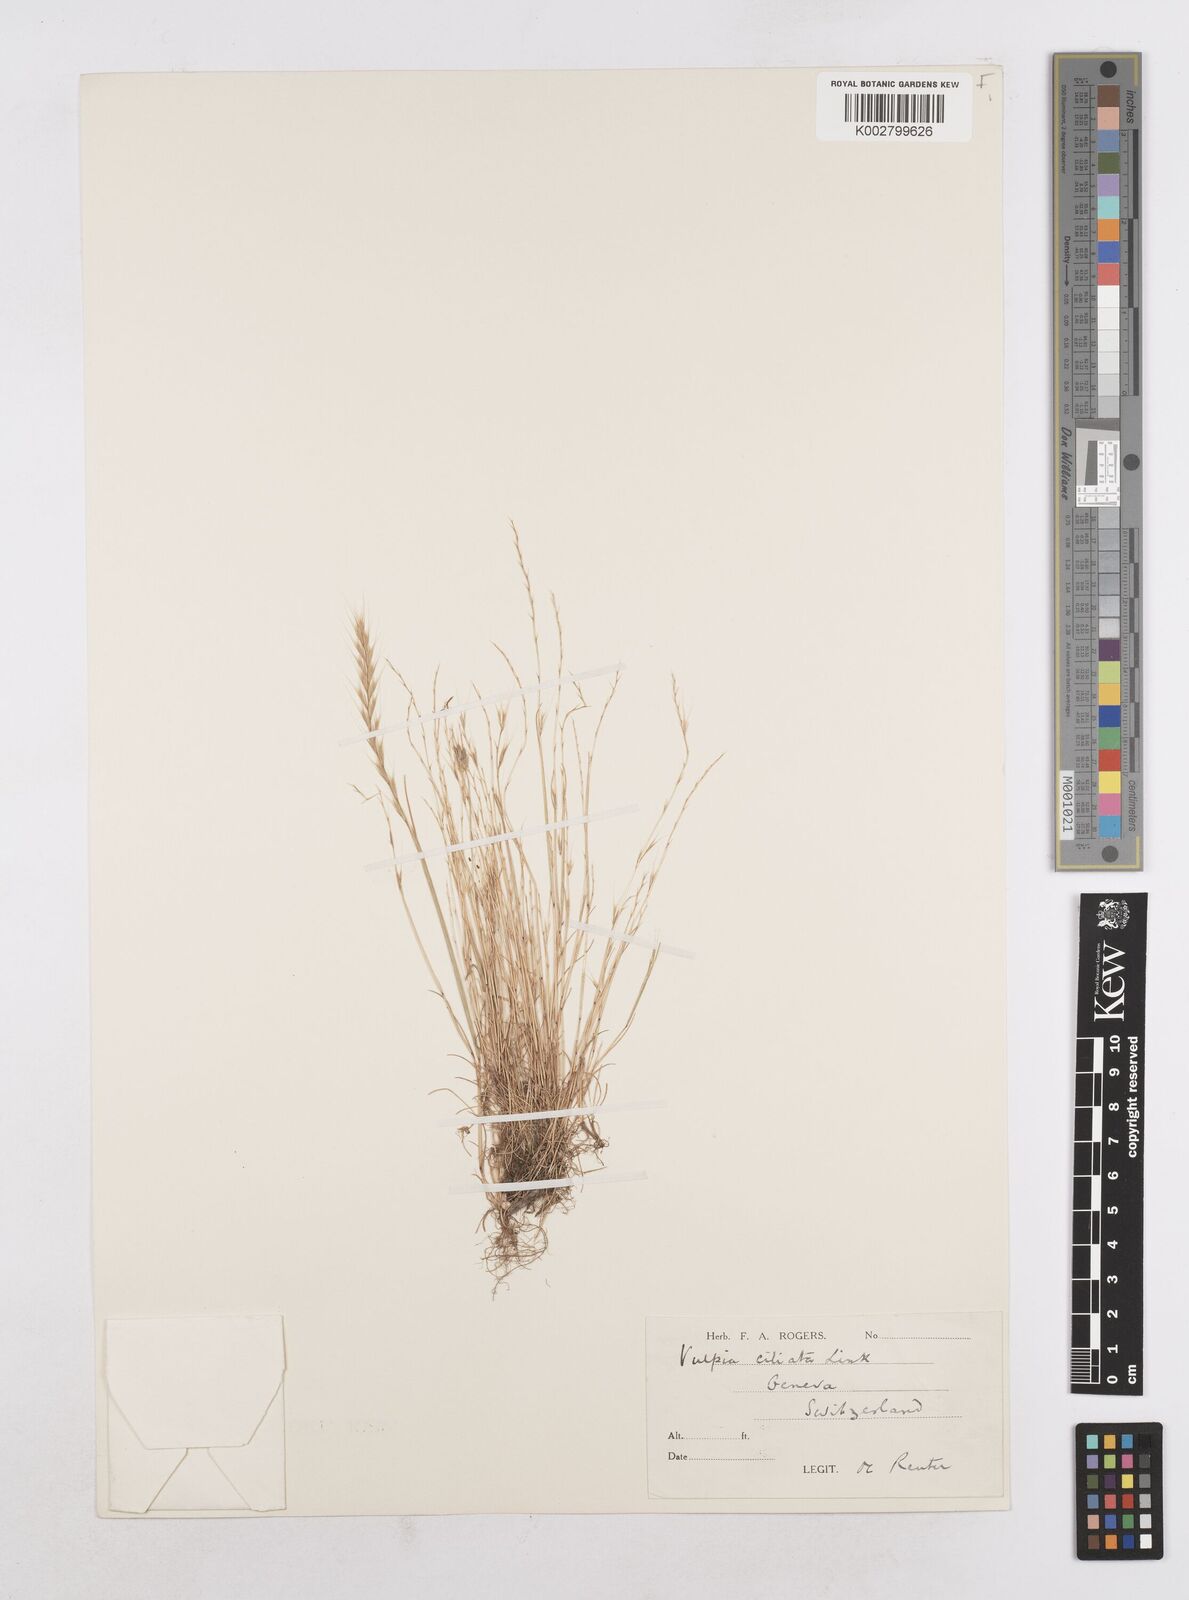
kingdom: Plantae
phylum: Tracheophyta
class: Liliopsida
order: Poales
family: Poaceae
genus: Festuca
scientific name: Festuca
